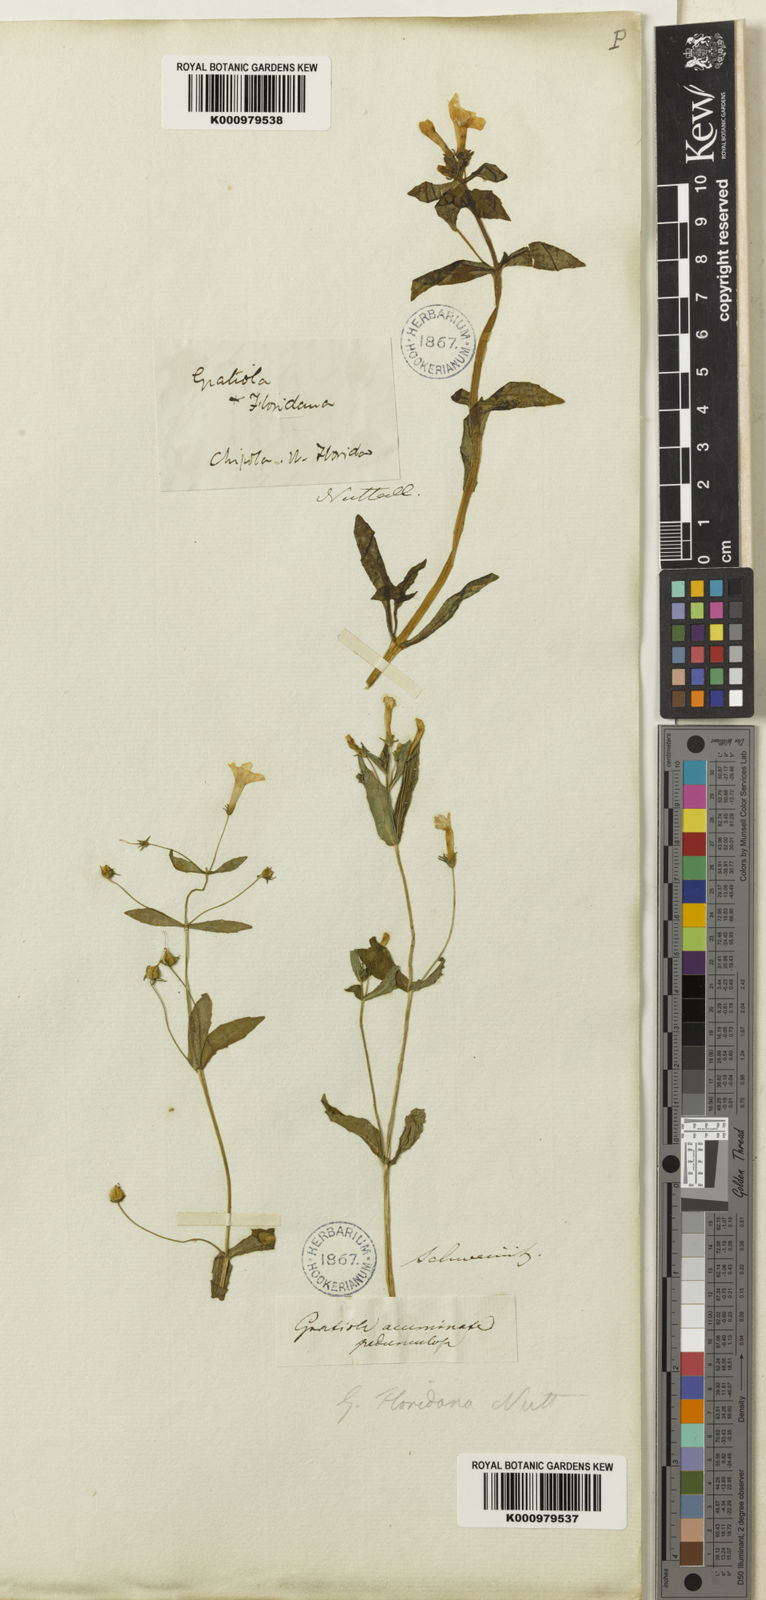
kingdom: Plantae
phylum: Tracheophyta
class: Magnoliopsida
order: Lamiales
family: Plantaginaceae
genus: Gratiola
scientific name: Gratiola floridana
